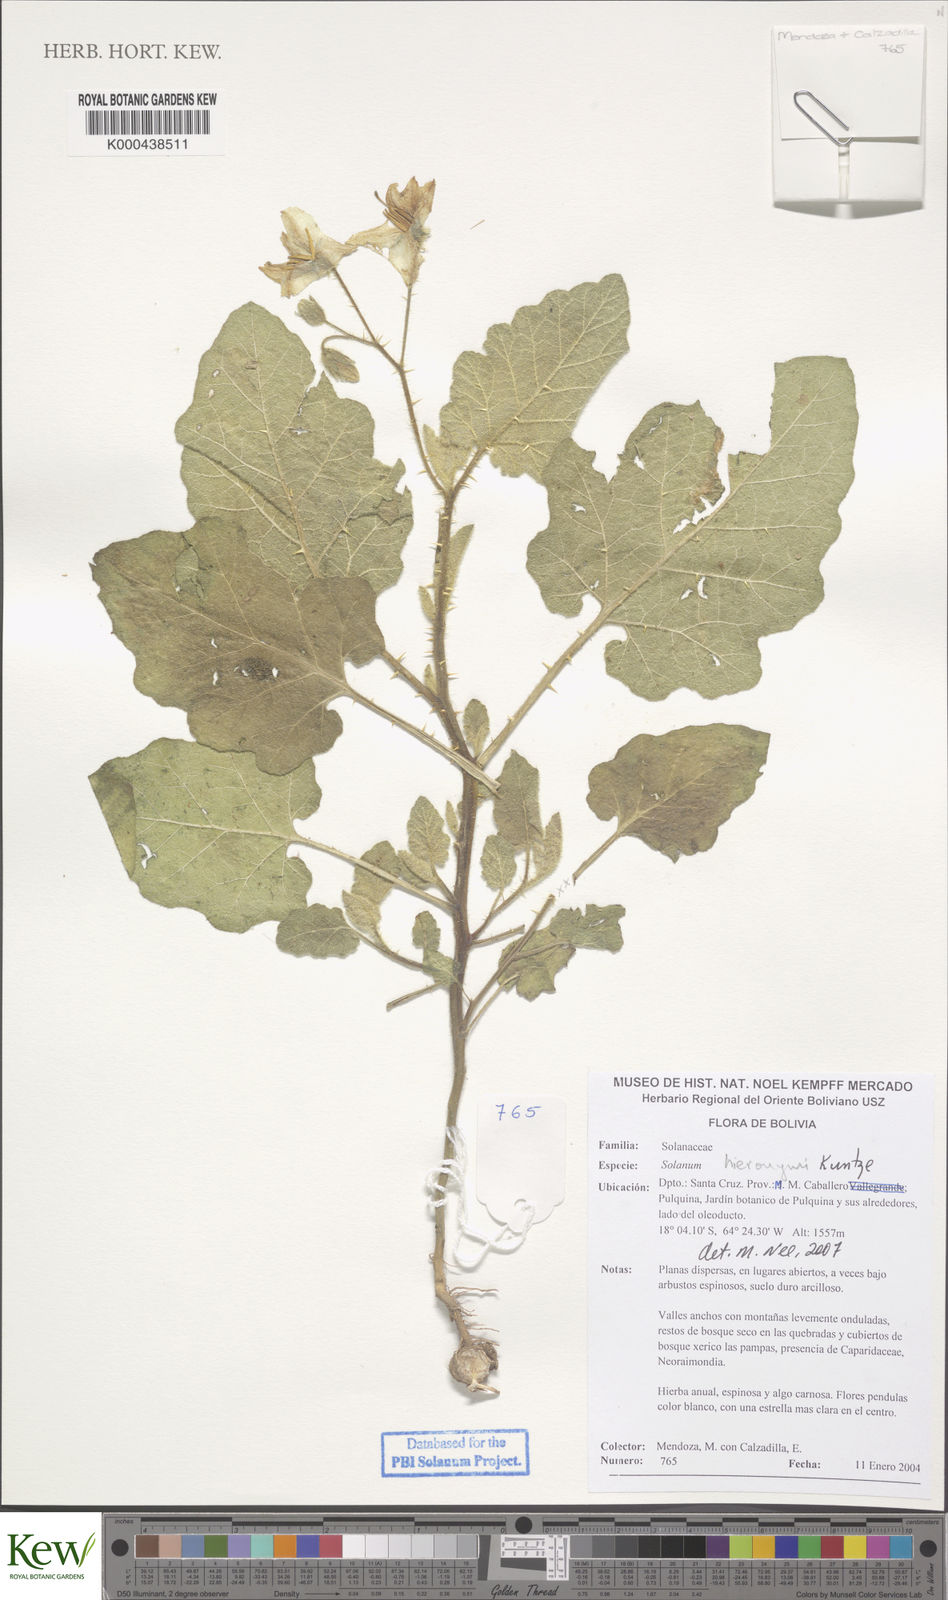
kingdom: Plantae
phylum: Tracheophyta
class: Magnoliopsida
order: Solanales
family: Solanaceae
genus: Solanum
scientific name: Solanum hieronymi
